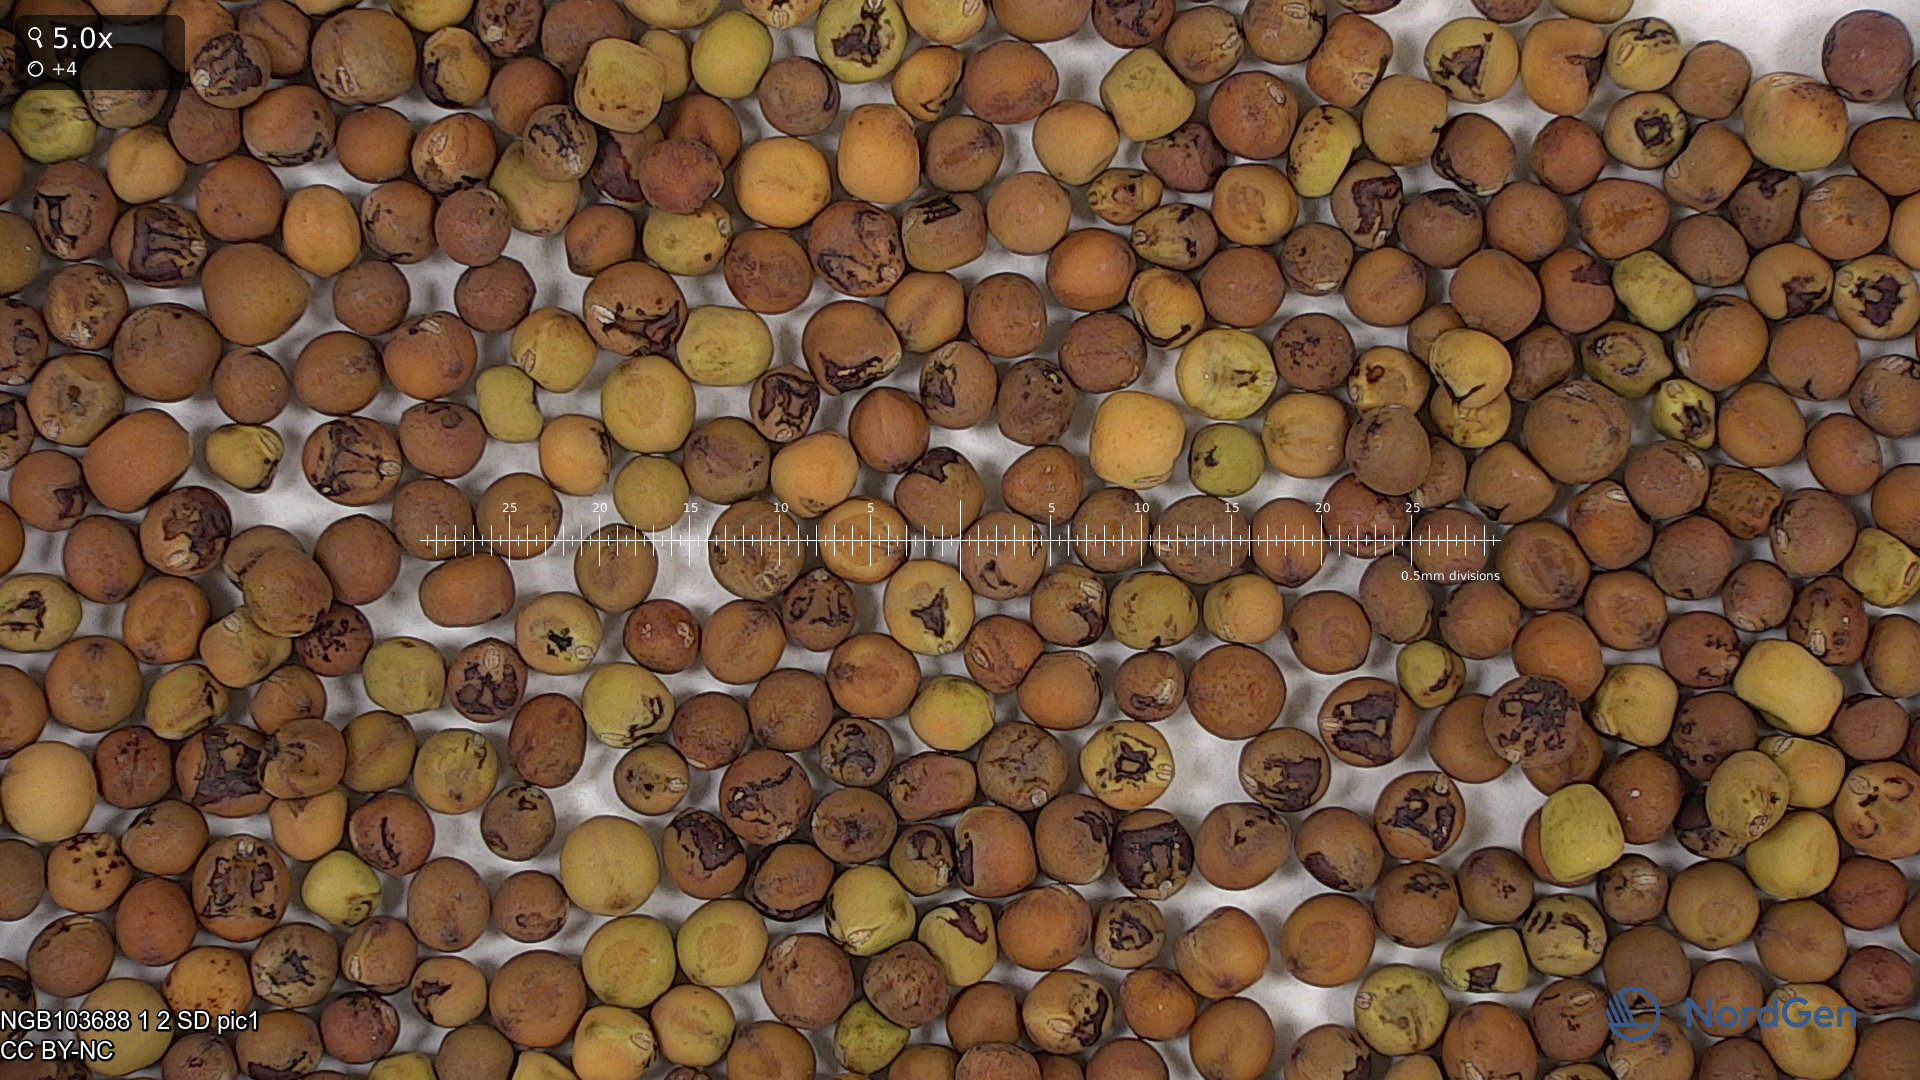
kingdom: Plantae
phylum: Tracheophyta
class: Magnoliopsida
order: Fabales
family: Fabaceae
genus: Lathyrus
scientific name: Lathyrus oleraceus
